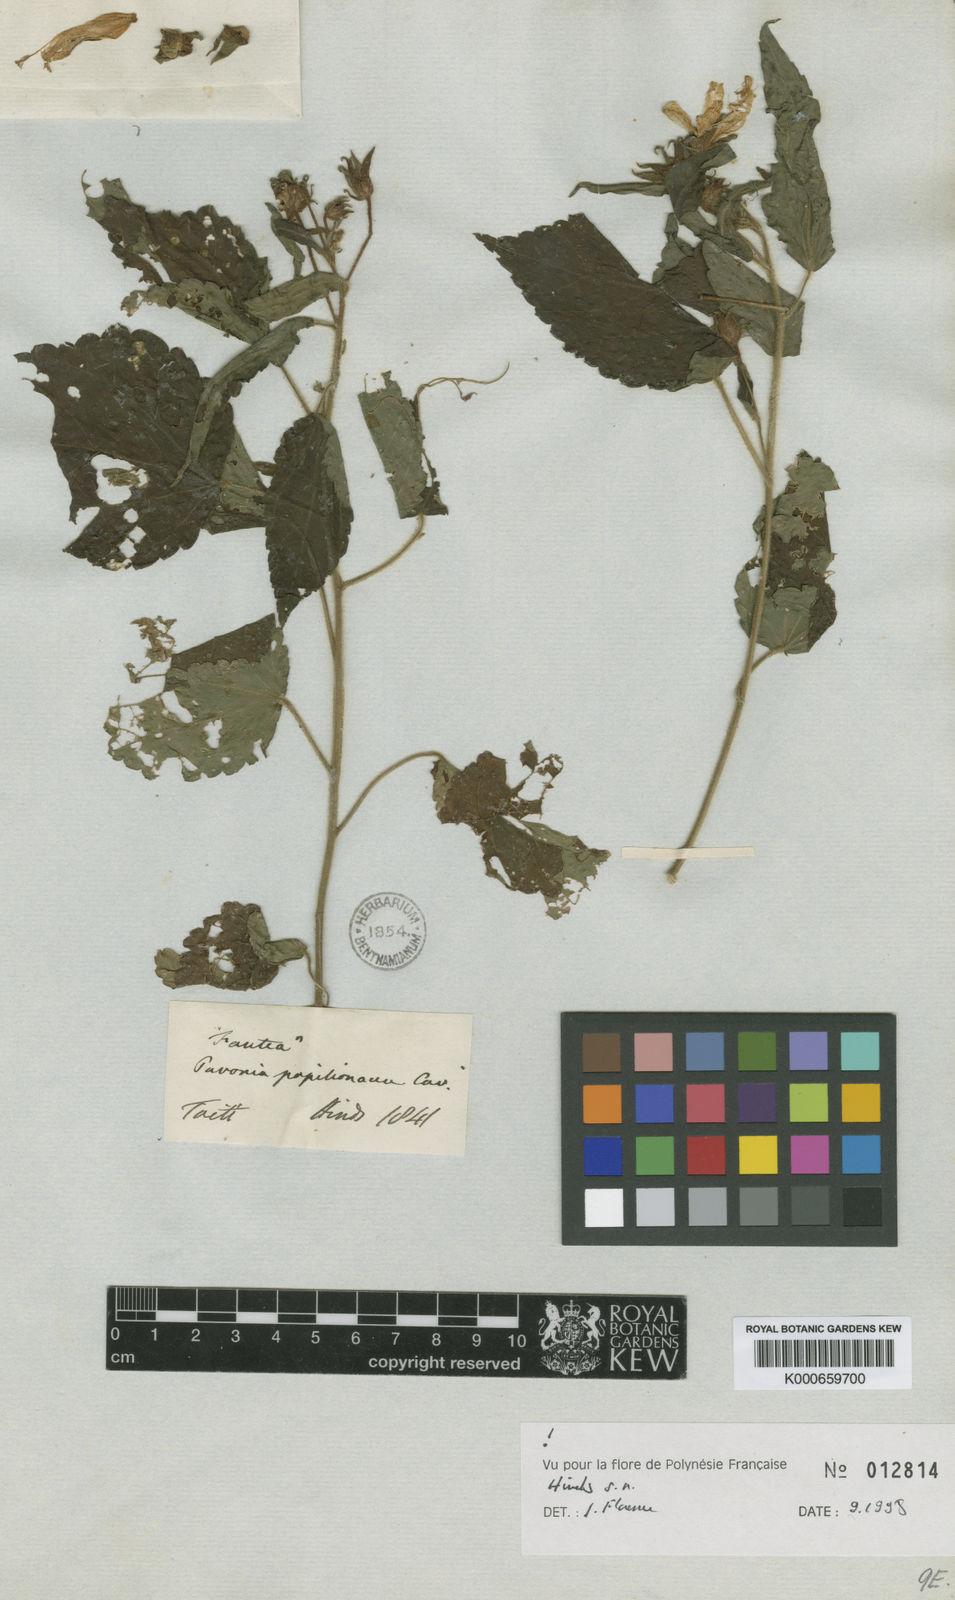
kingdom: Plantae
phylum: Tracheophyta
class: Magnoliopsida
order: Malvales
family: Malvaceae
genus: Pavonia
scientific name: Pavonia papilionacea
